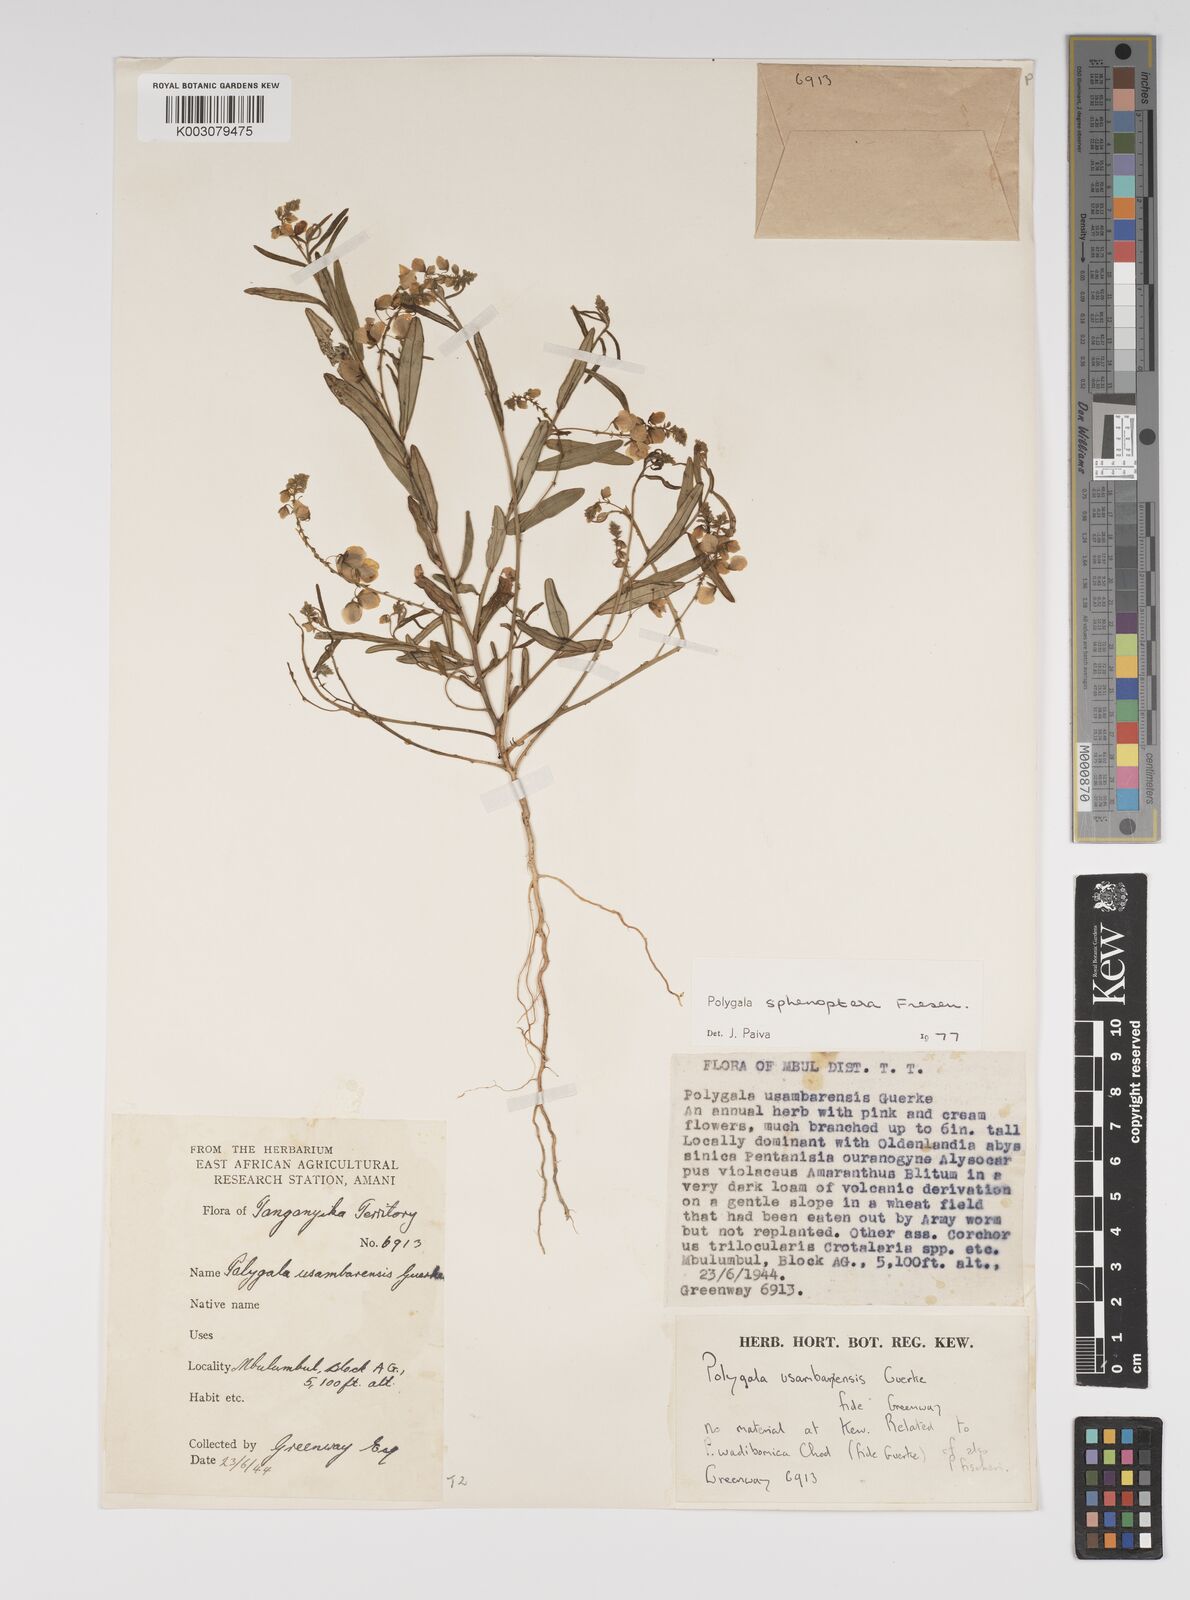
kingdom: Plantae
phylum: Tracheophyta
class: Magnoliopsida
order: Fabales
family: Polygalaceae
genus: Polygala
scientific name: Polygala sphenoptera
